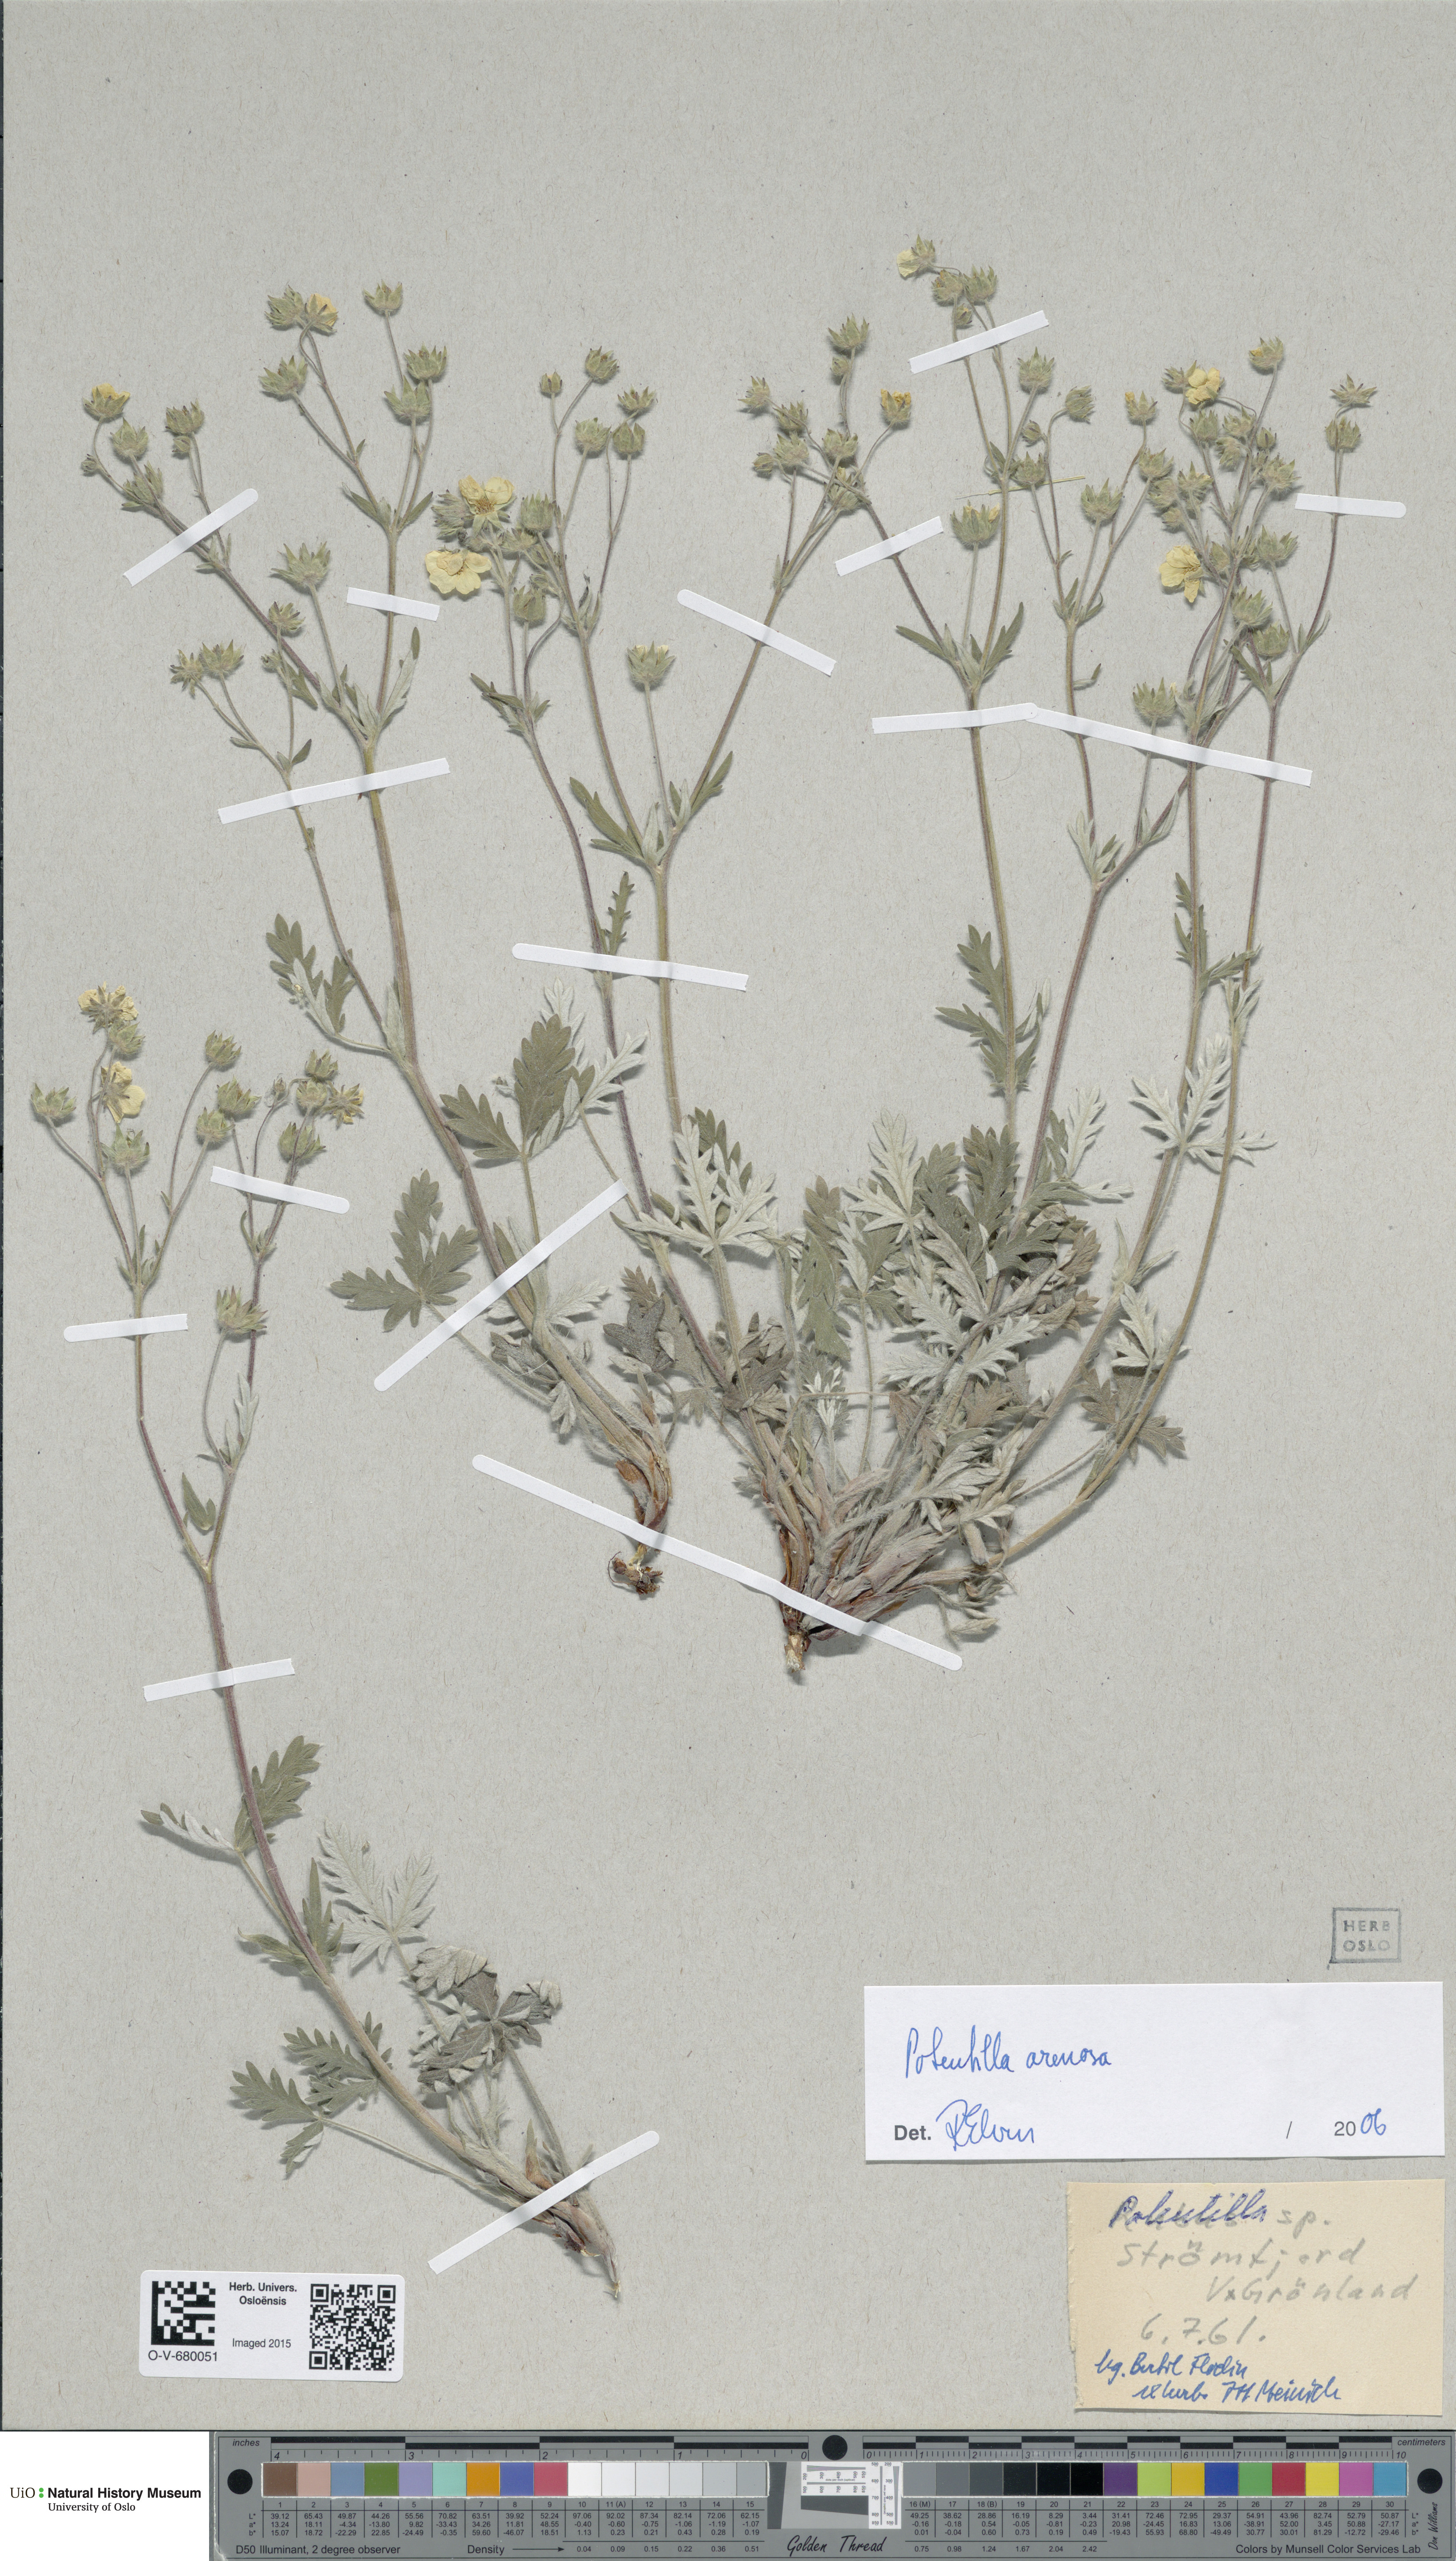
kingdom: Plantae
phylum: Tracheophyta
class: Magnoliopsida
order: Rosales
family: Rosaceae
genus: Potentilla
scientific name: Potentilla arenosa
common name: Bluff cinquefoil
